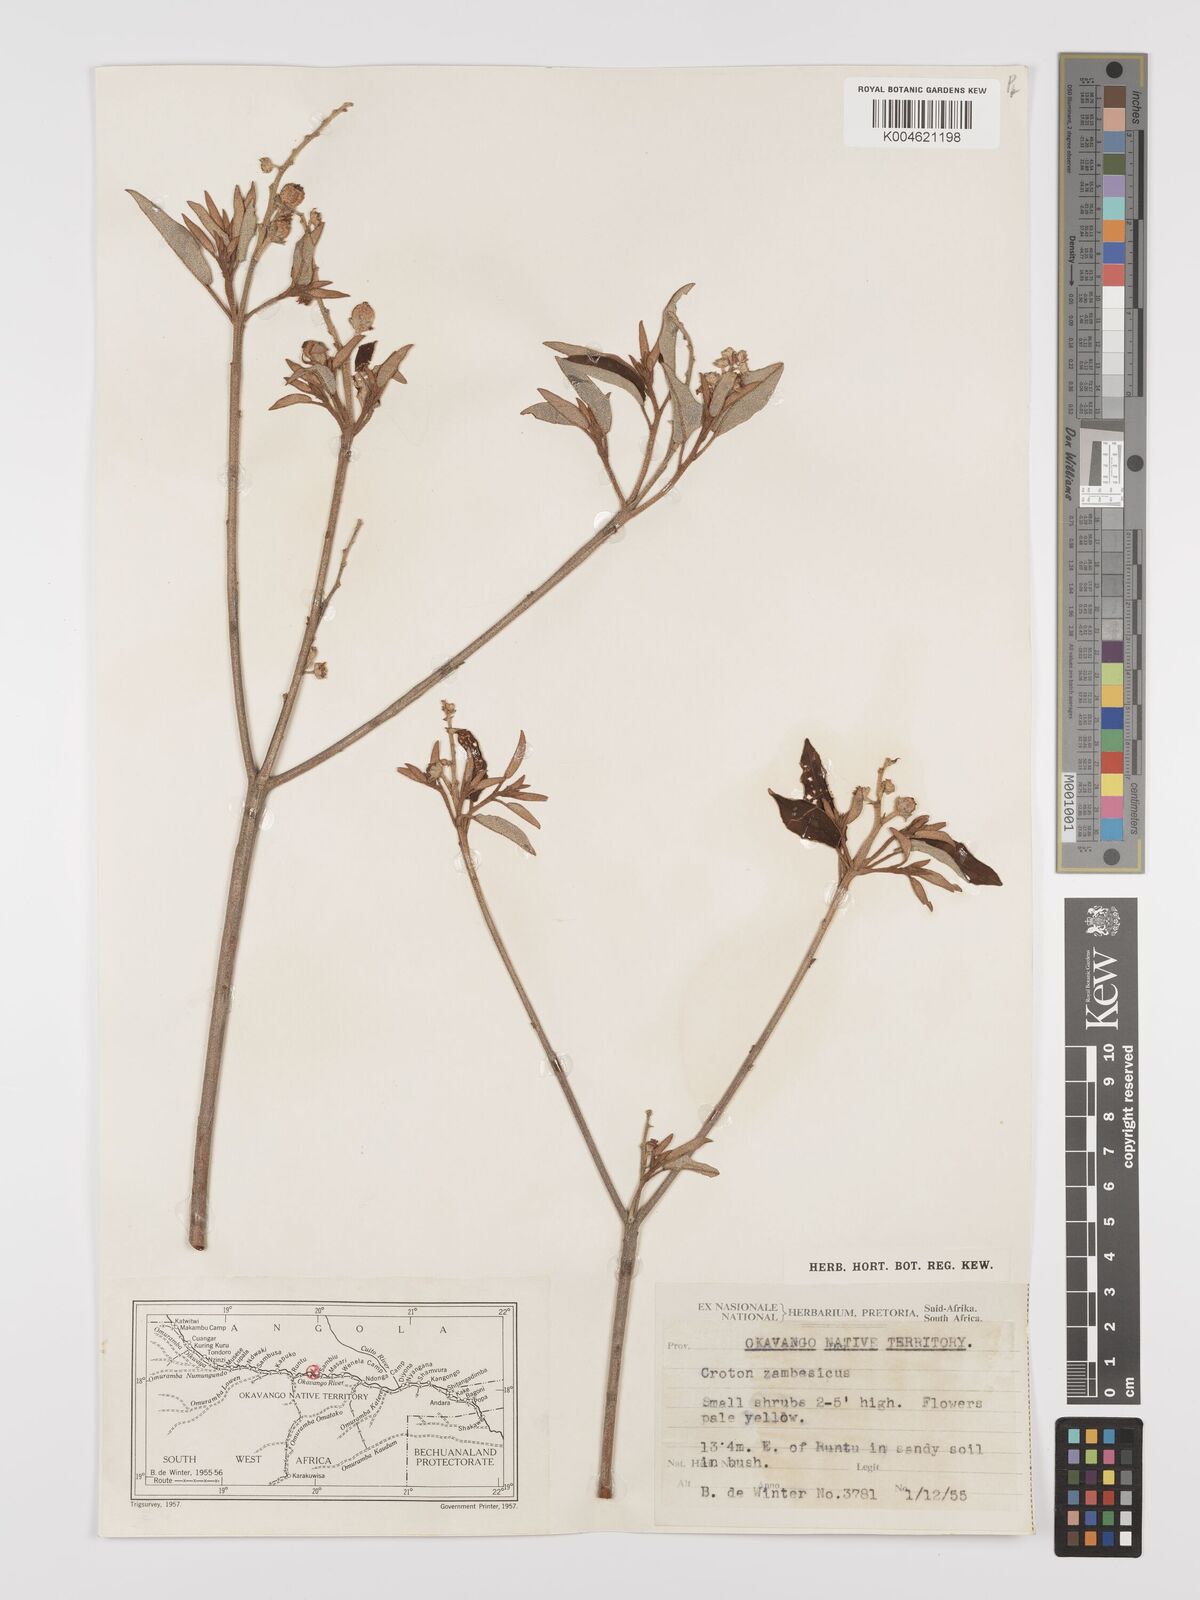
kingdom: Plantae
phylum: Tracheophyta
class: Magnoliopsida
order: Malpighiales
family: Euphorbiaceae
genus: Croton
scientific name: Croton gratissimus
